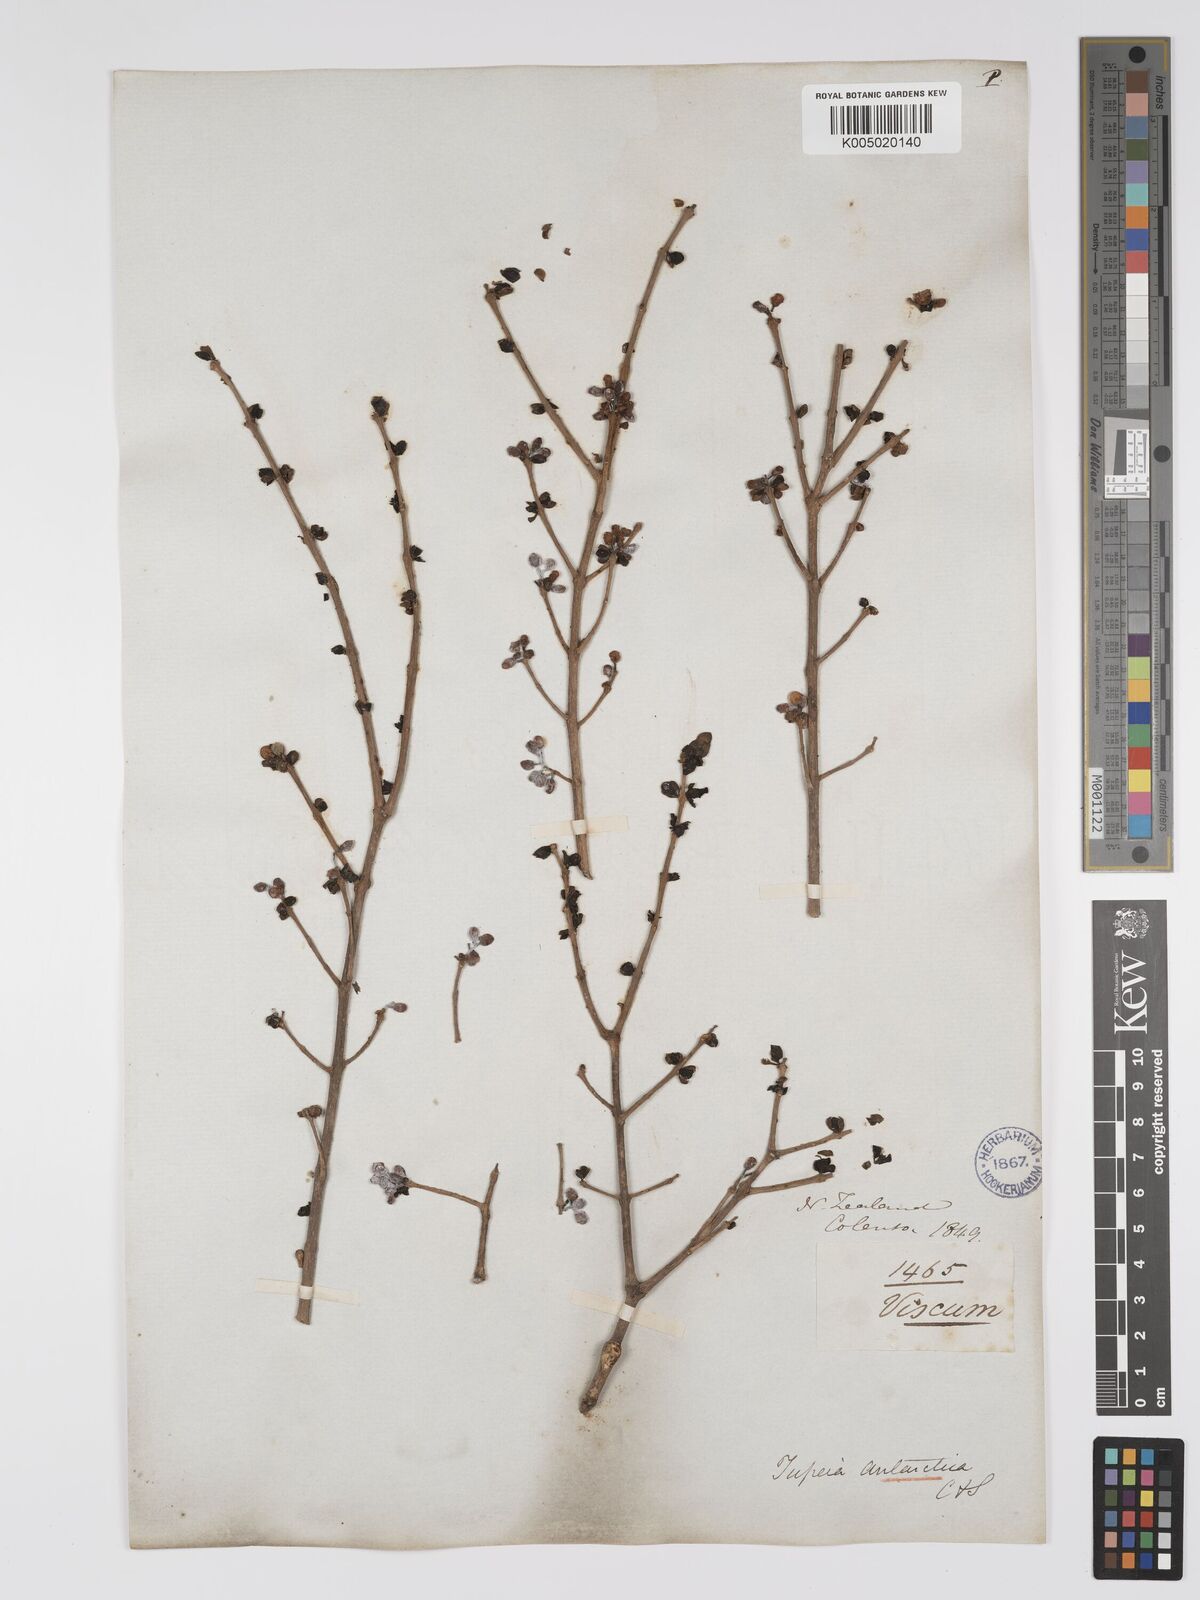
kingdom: Plantae
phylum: Tracheophyta
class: Magnoliopsida
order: Santalales
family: Loranthaceae
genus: Tupeia
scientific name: Tupeia antarctica
